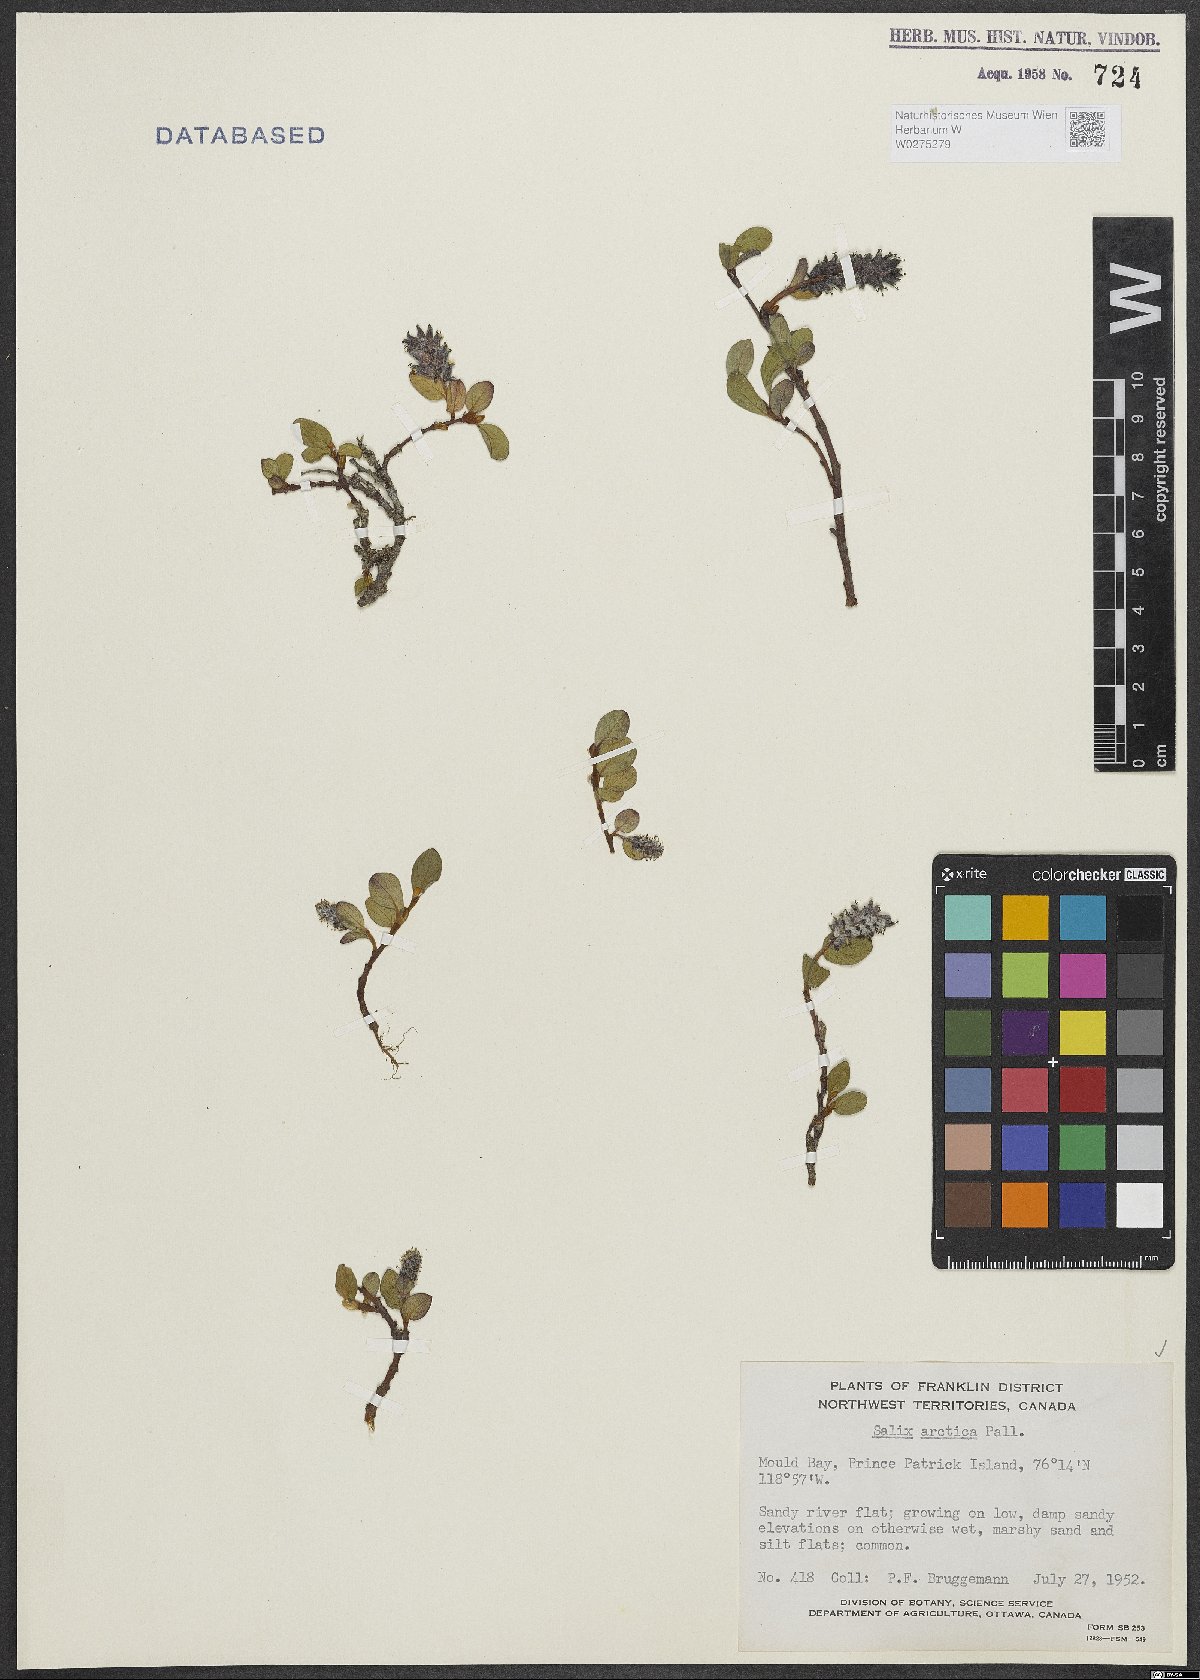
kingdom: Plantae
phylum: Tracheophyta
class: Magnoliopsida
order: Malpighiales
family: Salicaceae
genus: Salix
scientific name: Salix arctica
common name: Arctic willow
